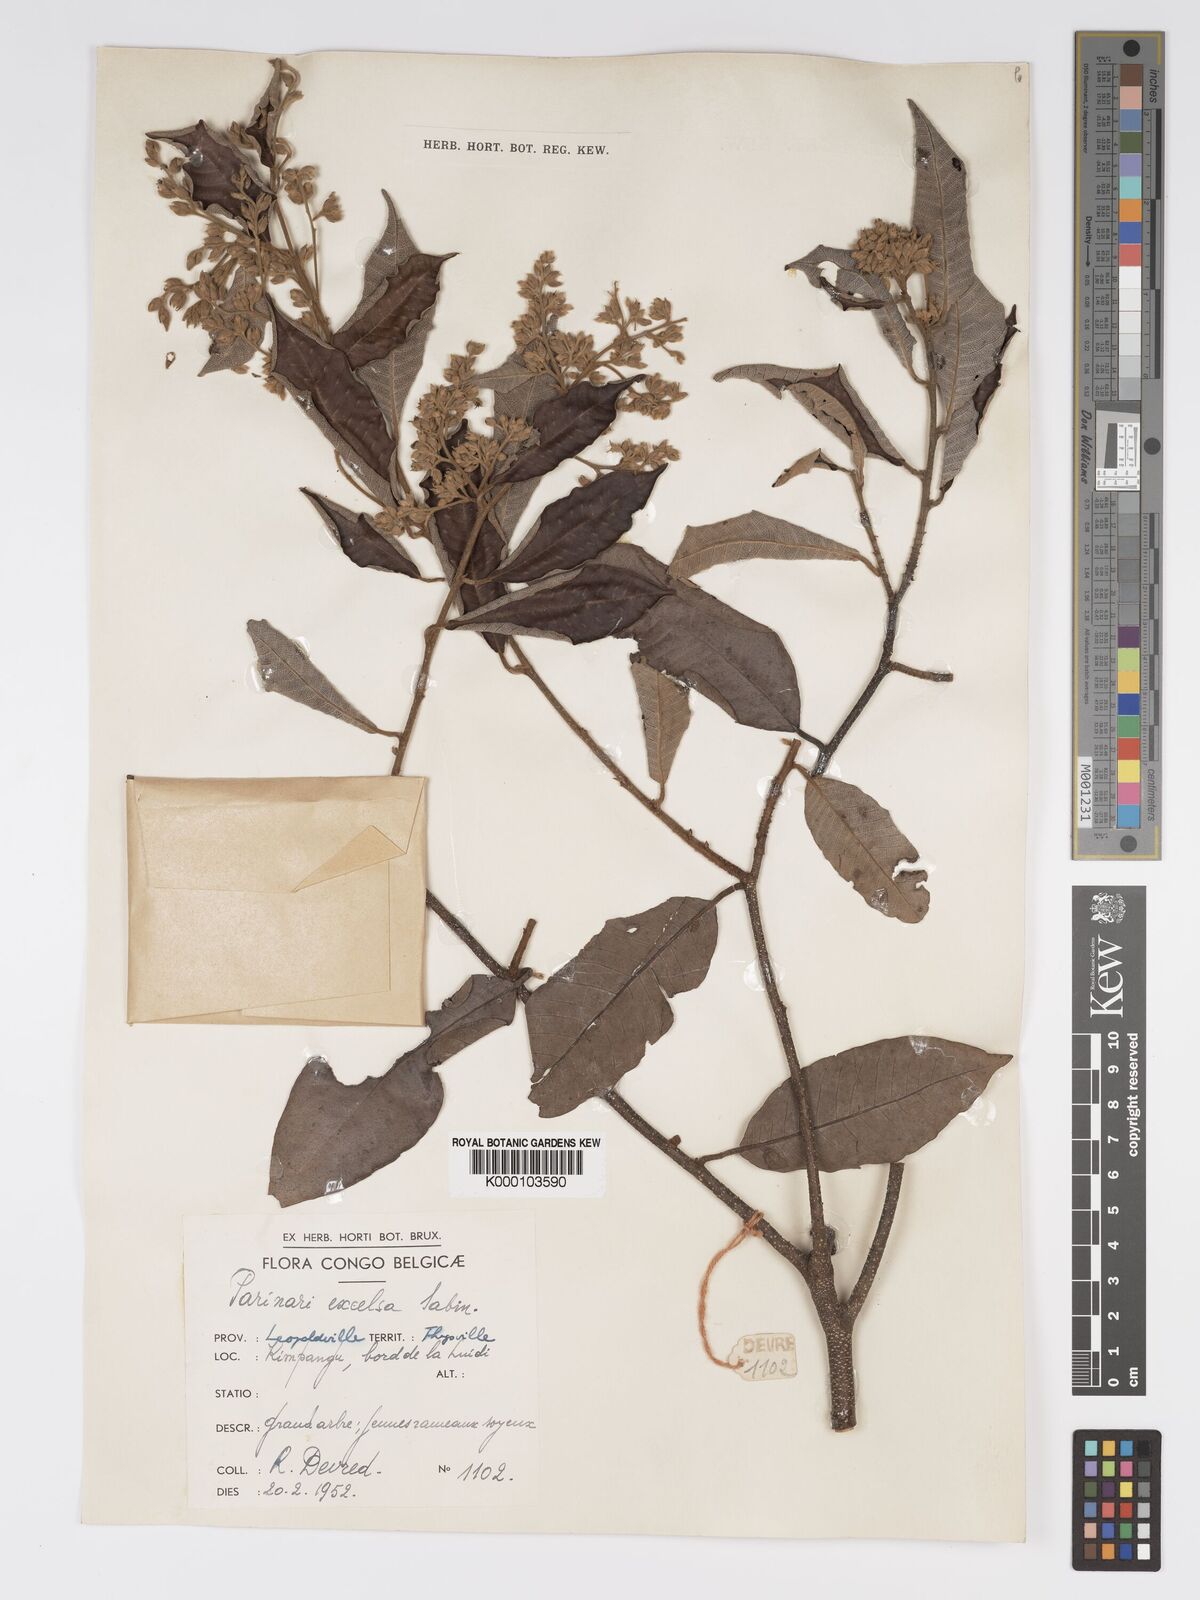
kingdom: Plantae
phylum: Tracheophyta
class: Magnoliopsida
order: Malpighiales
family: Chrysobalanaceae
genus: Parinari
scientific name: Parinari excelsa
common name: Guinea-plum
